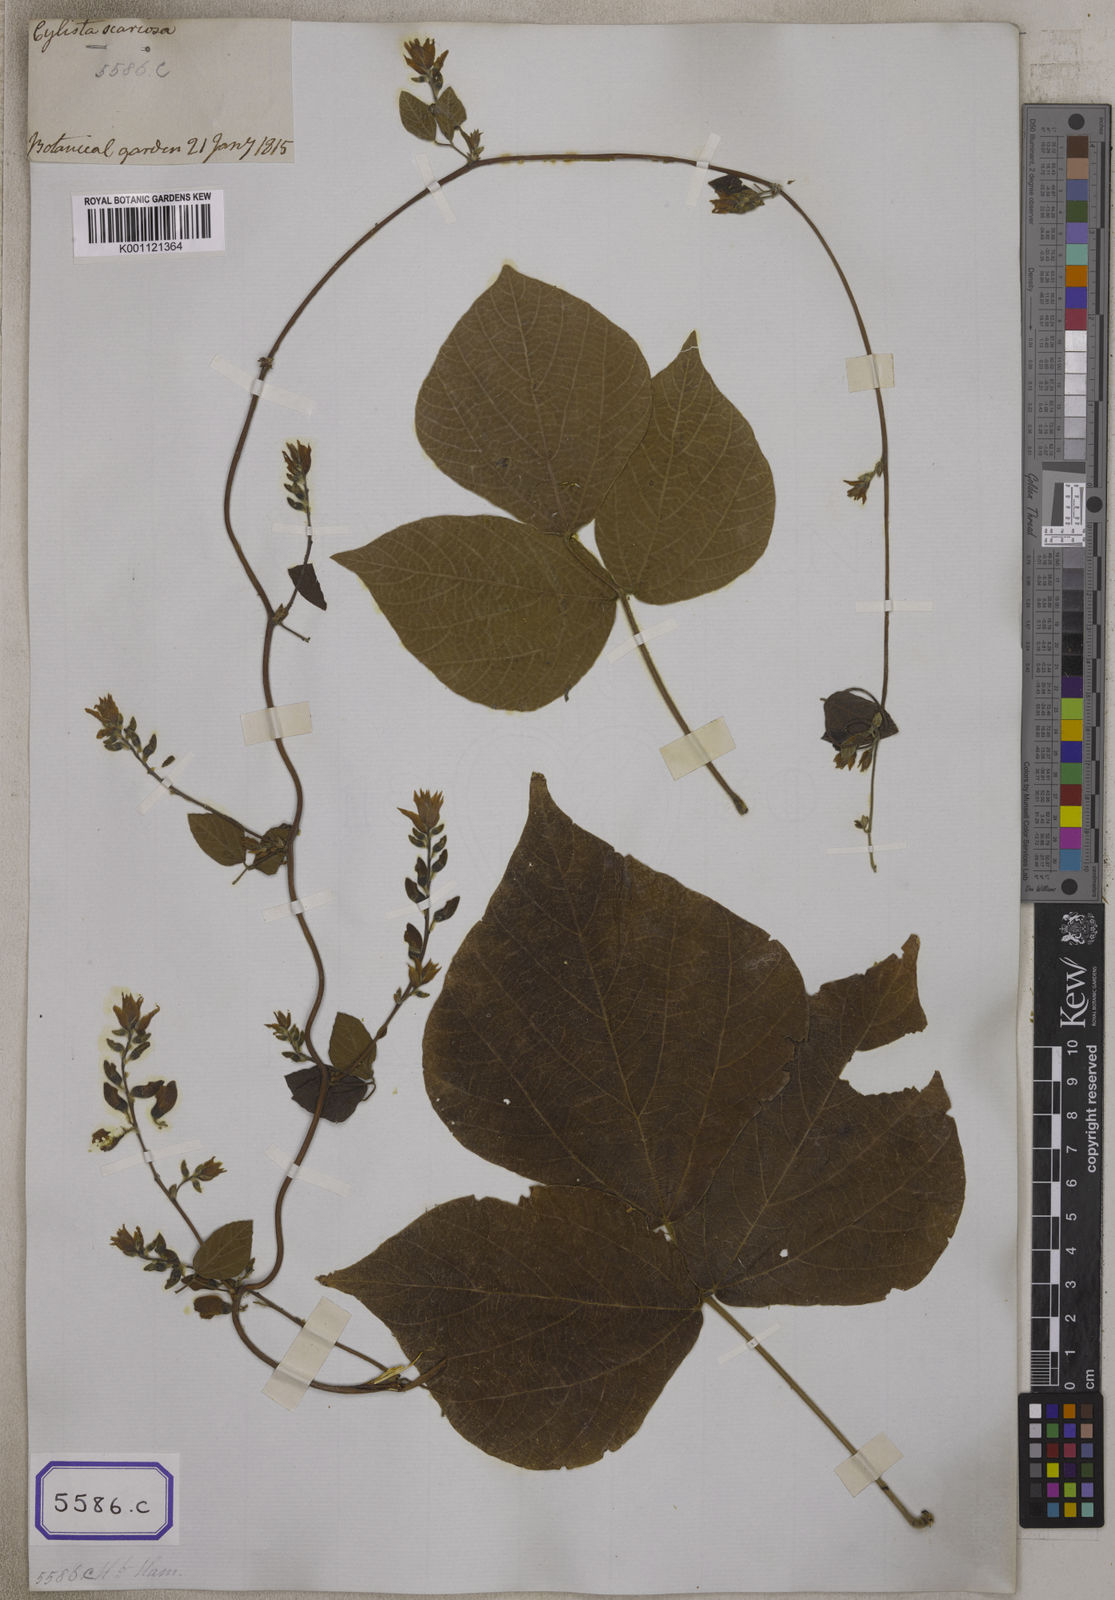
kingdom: Plantae
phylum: Tracheophyta
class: Magnoliopsida
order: Fabales
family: Fabaceae
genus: Paracalyx
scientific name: Paracalyx scariosus
